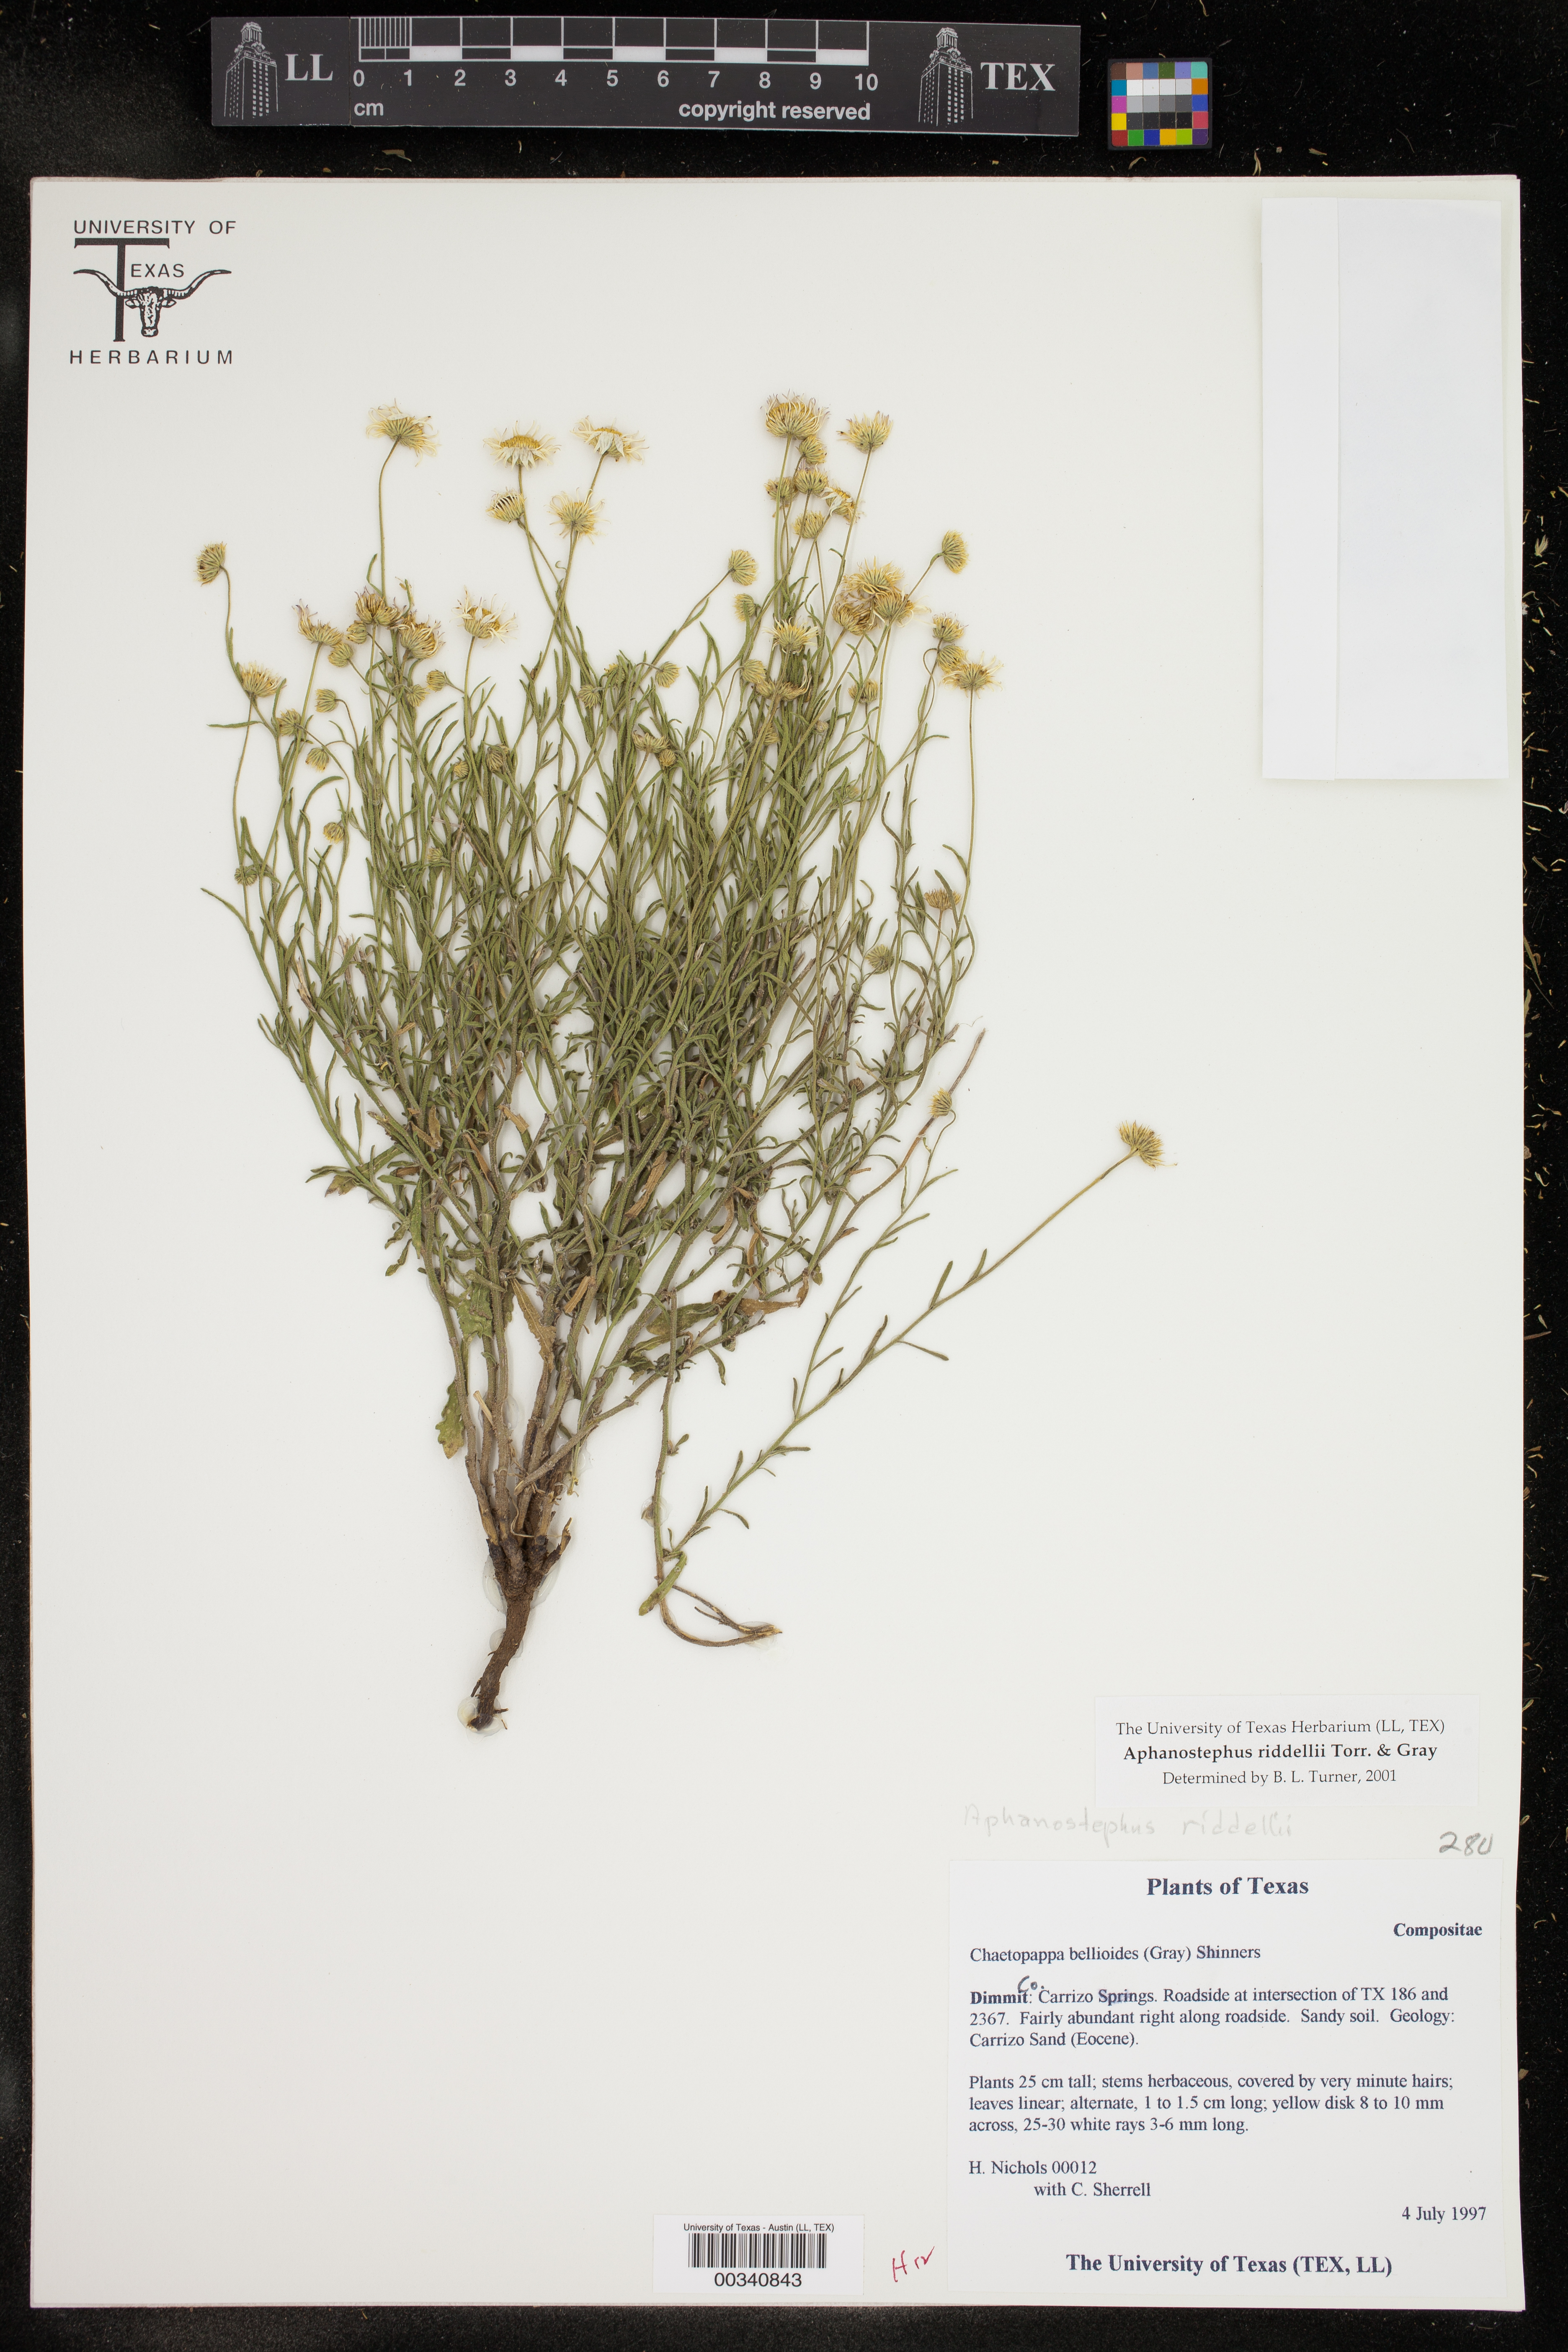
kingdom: Plantae
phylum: Tracheophyta
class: Magnoliopsida
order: Asterales
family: Asteraceae
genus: Aphanostephus
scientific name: Aphanostephus riddellii
